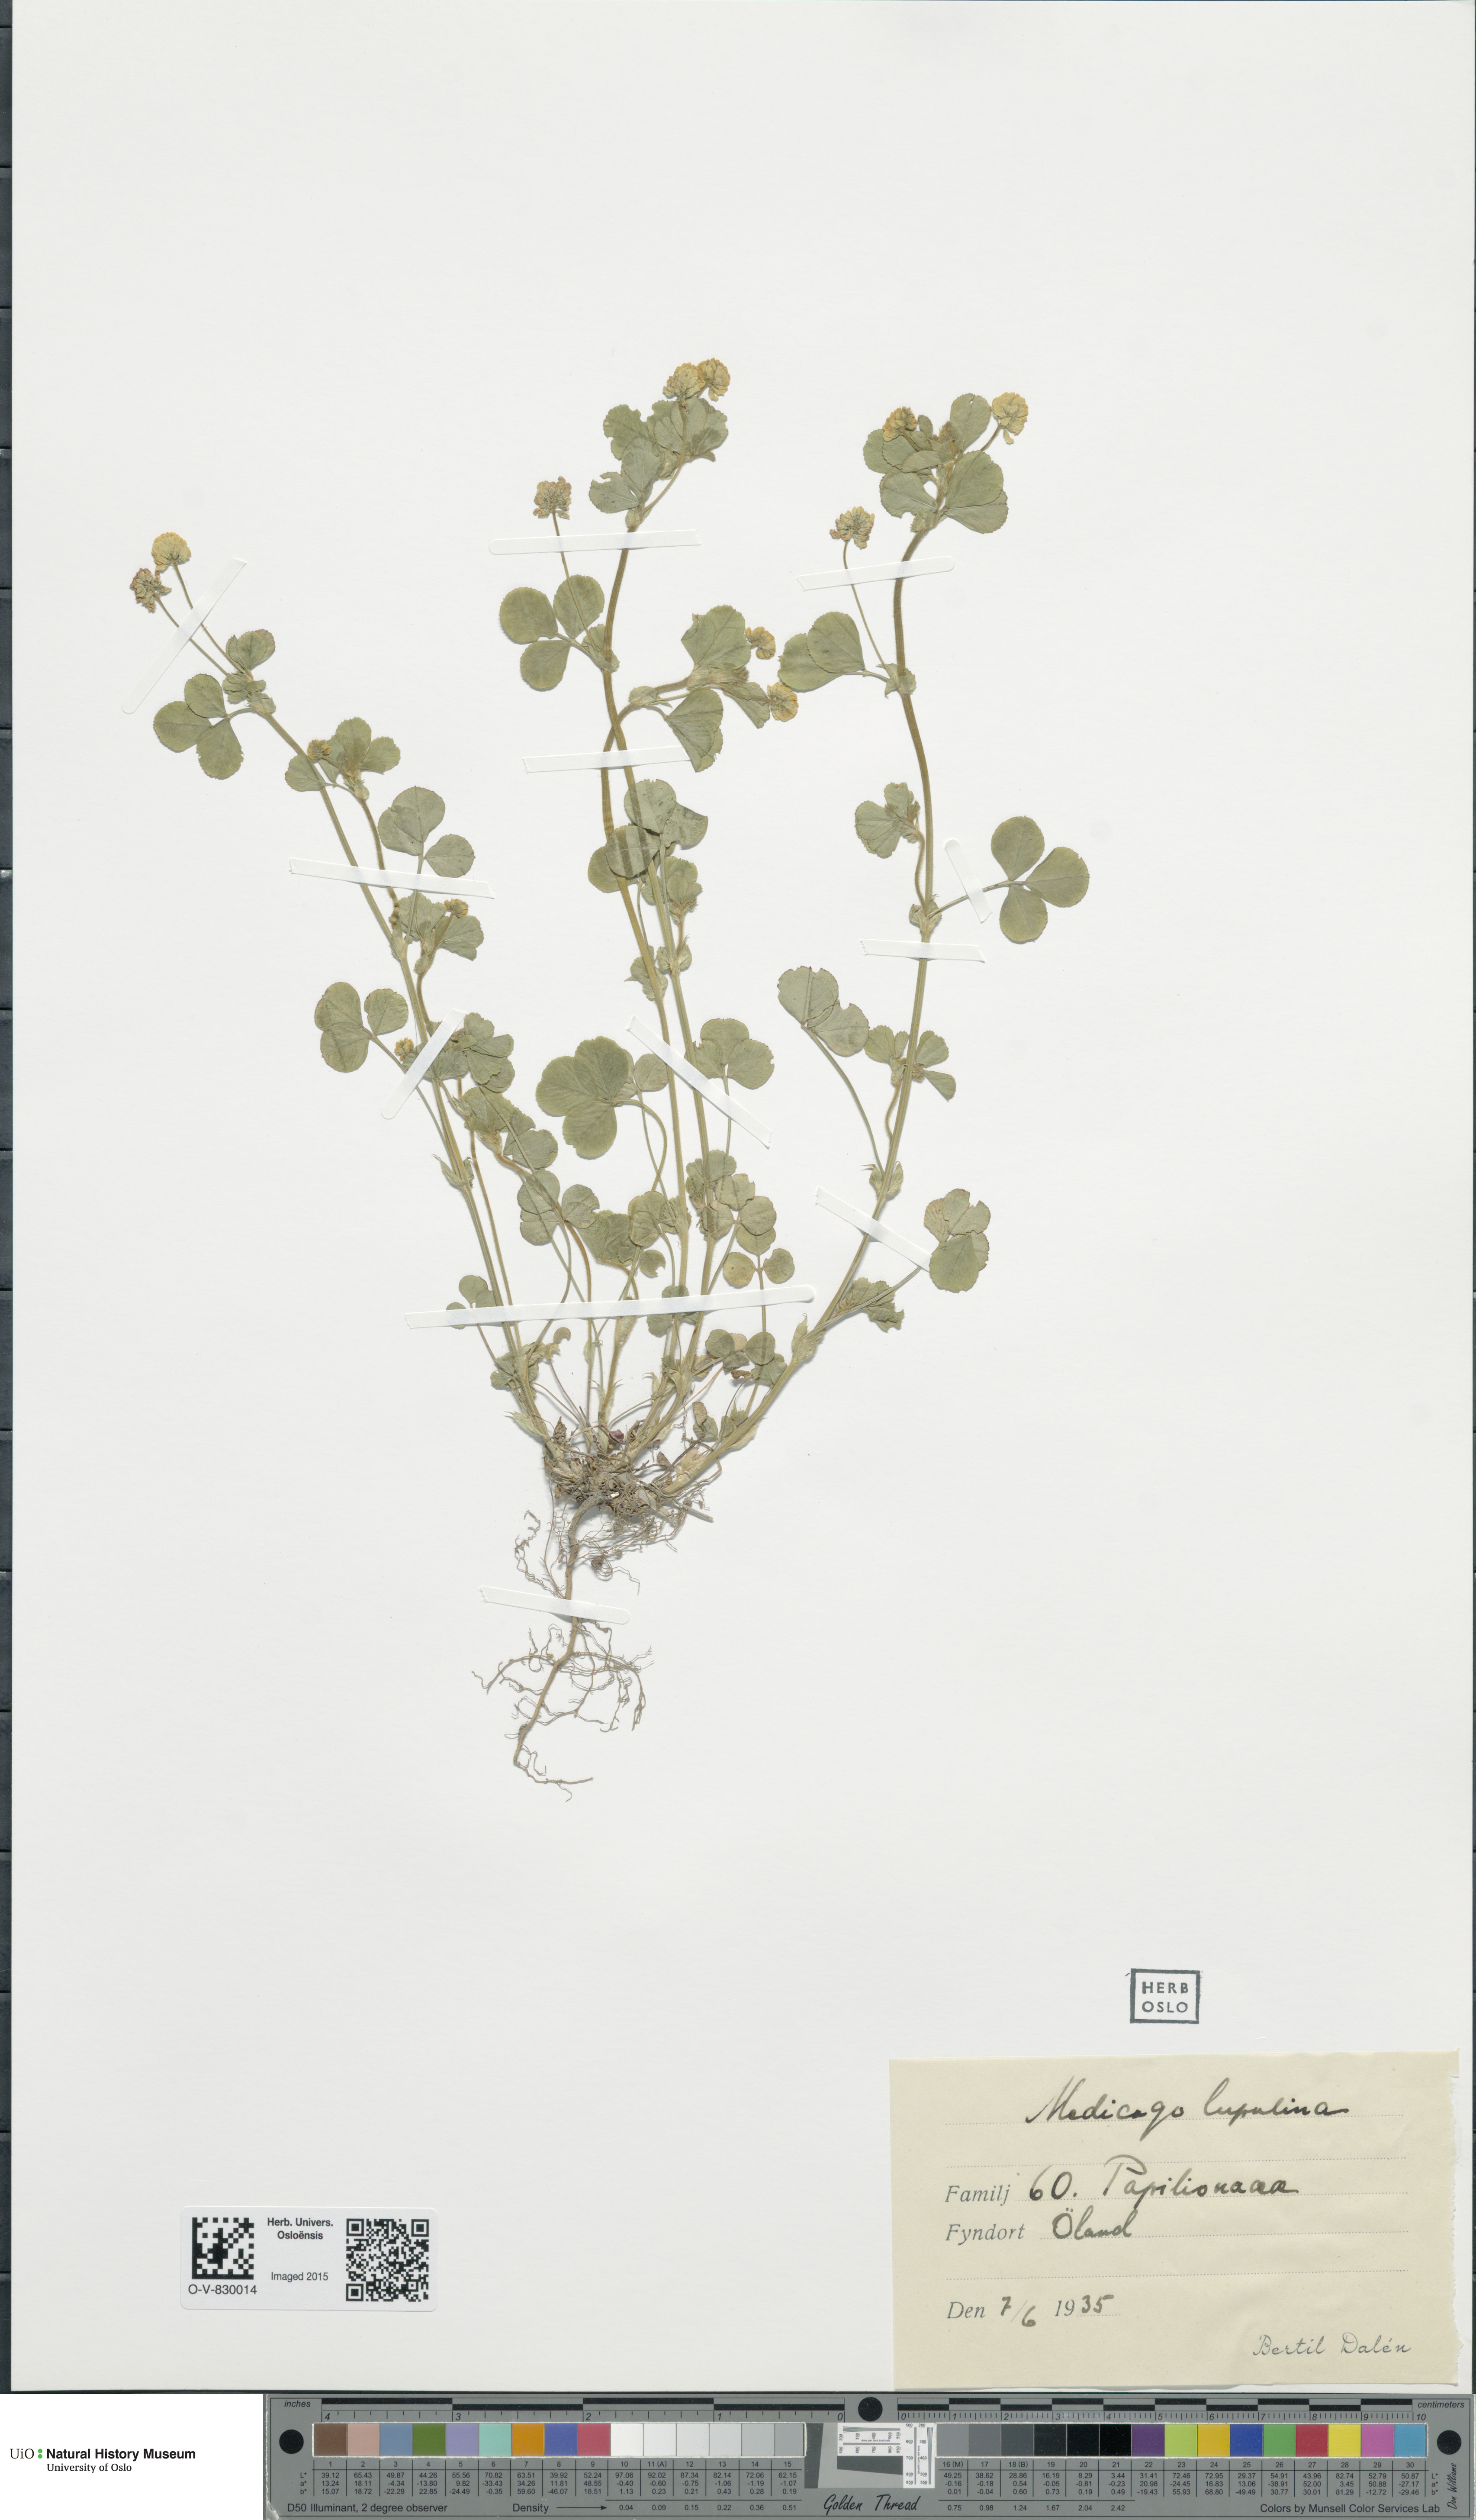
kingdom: Plantae
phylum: Tracheophyta
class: Magnoliopsida
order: Fabales
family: Fabaceae
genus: Medicago
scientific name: Medicago lupulina
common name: Black medick
